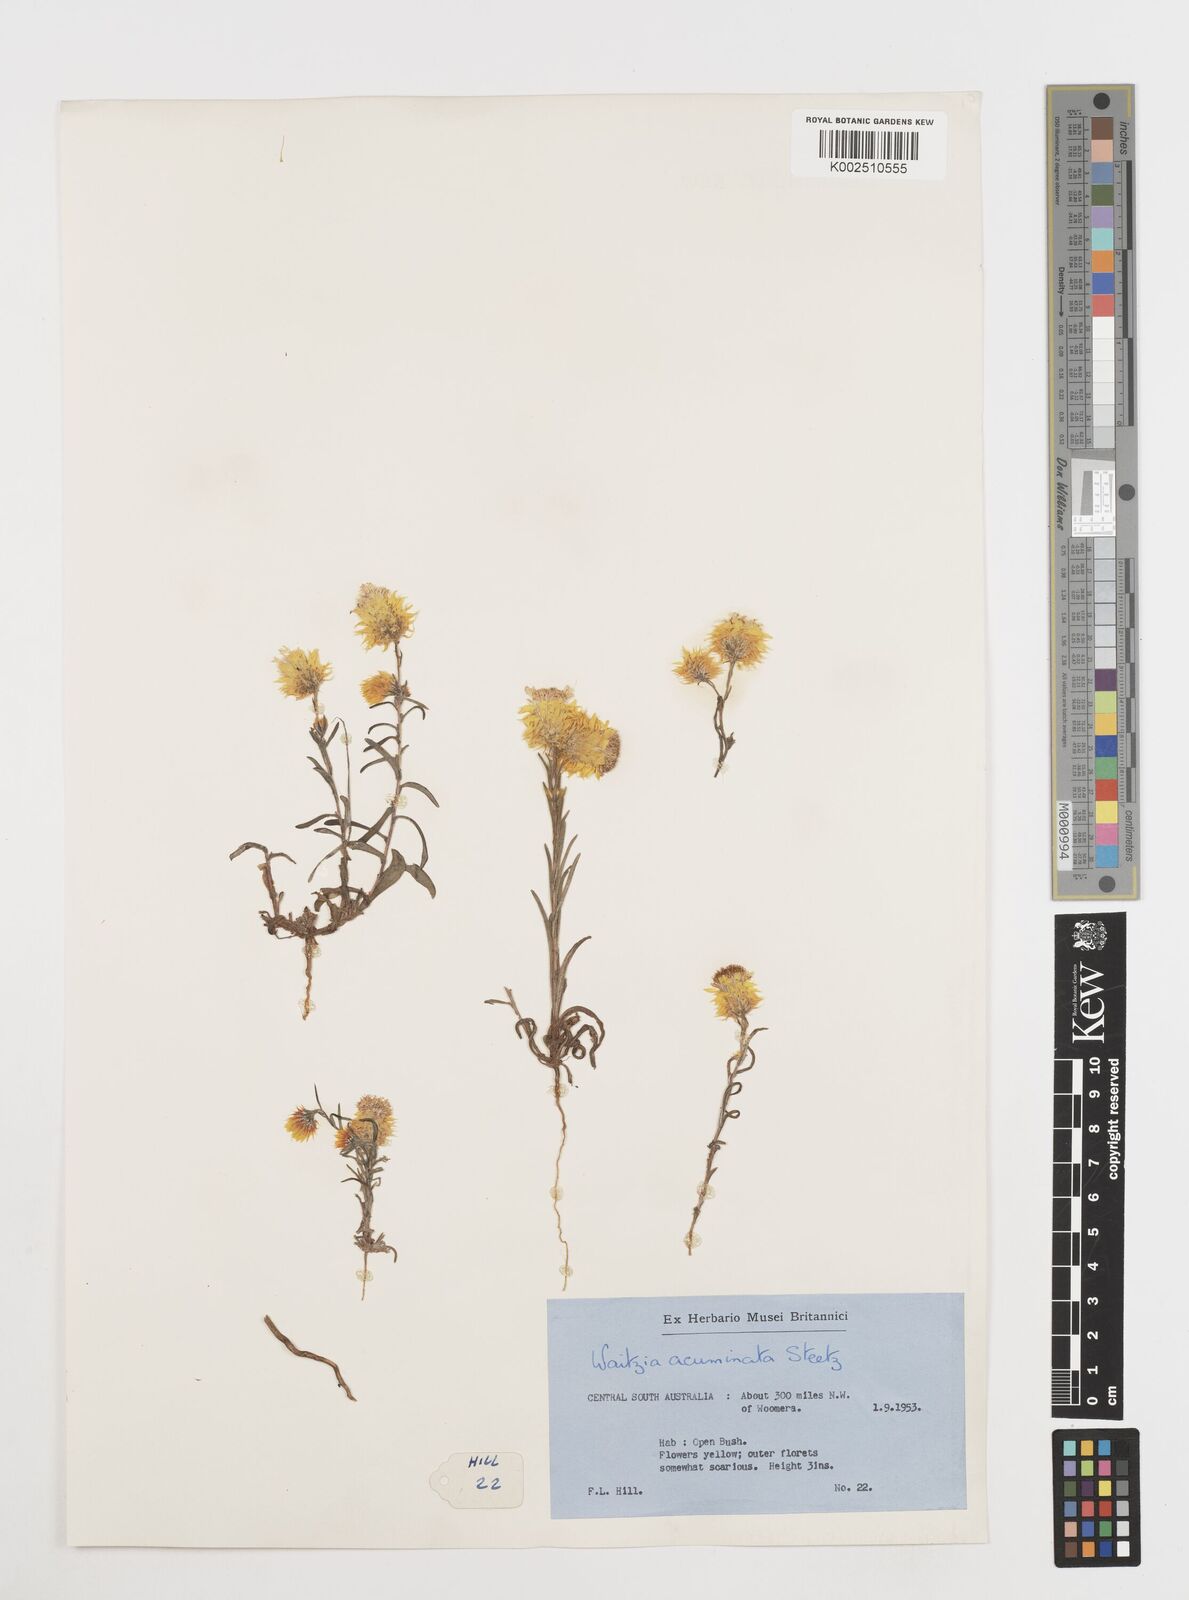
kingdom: Plantae
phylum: Tracheophyta
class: Magnoliopsida
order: Asterales
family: Asteraceae
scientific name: Asteraceae
